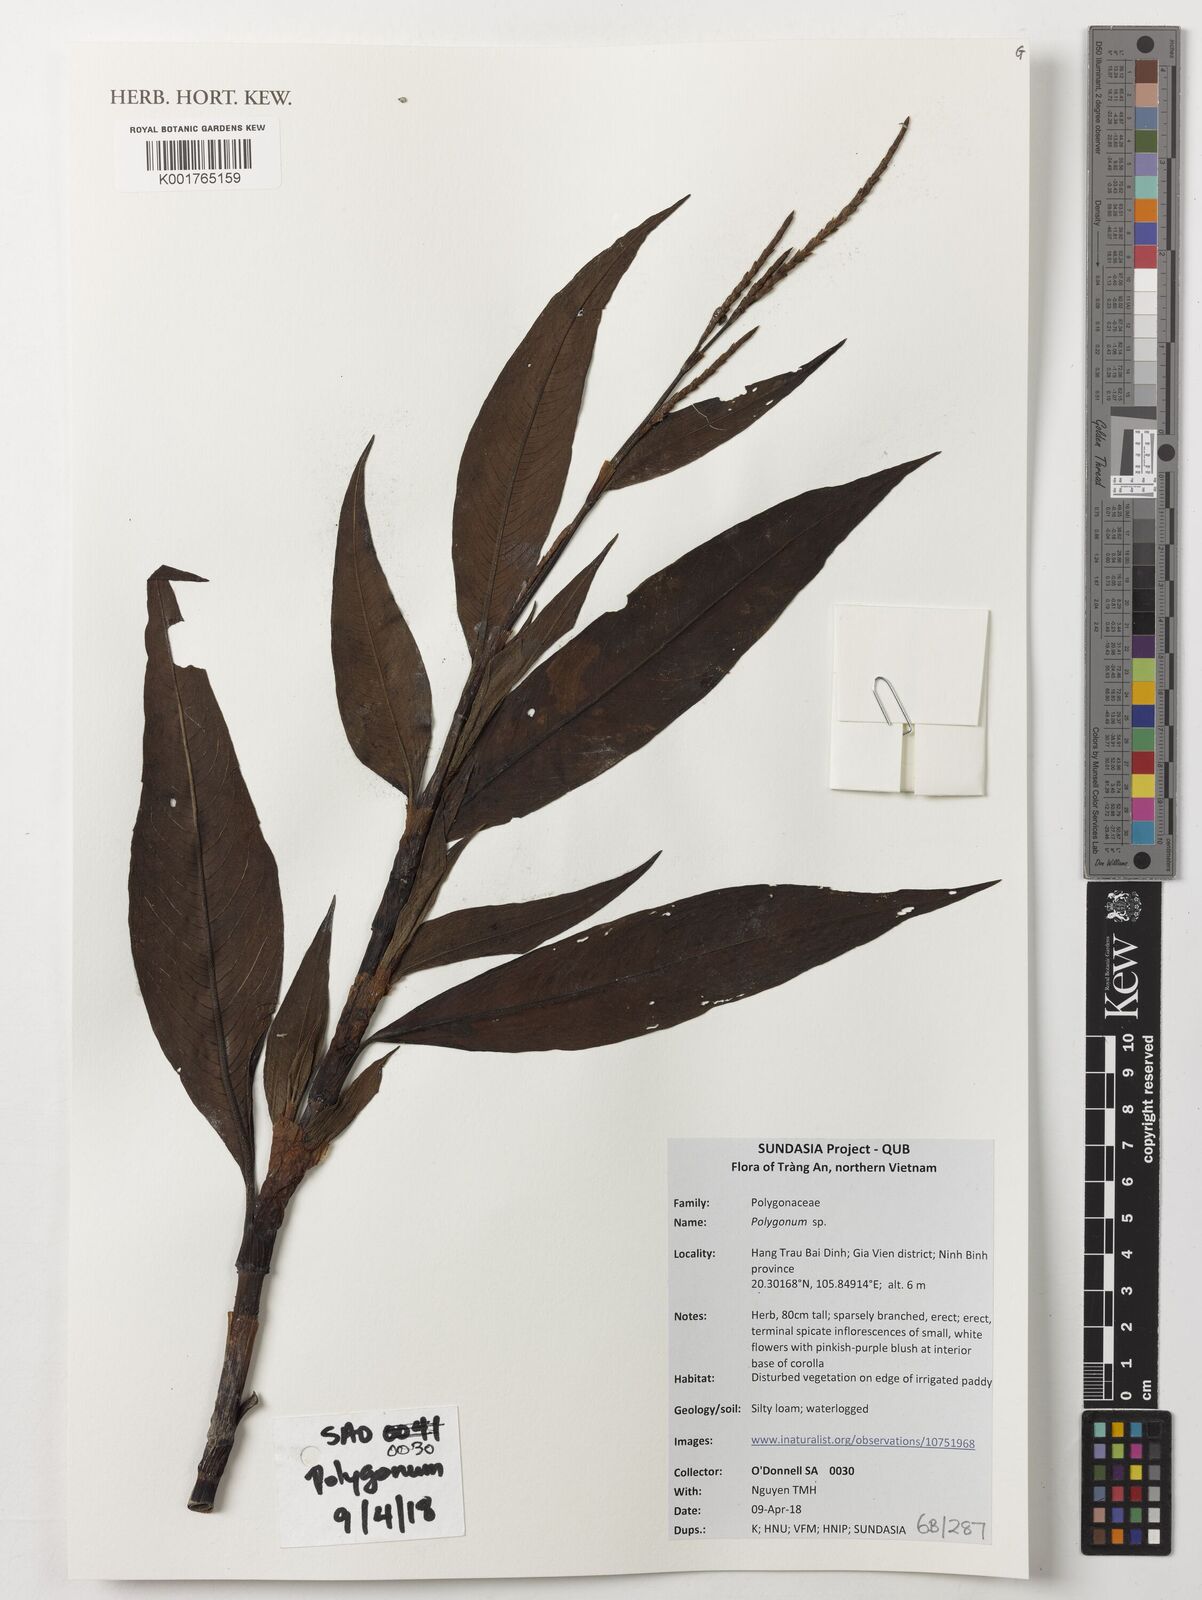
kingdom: Plantae
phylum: Tracheophyta
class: Magnoliopsida
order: Caryophyllales
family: Polygonaceae
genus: Polygonum
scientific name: Polygonum
